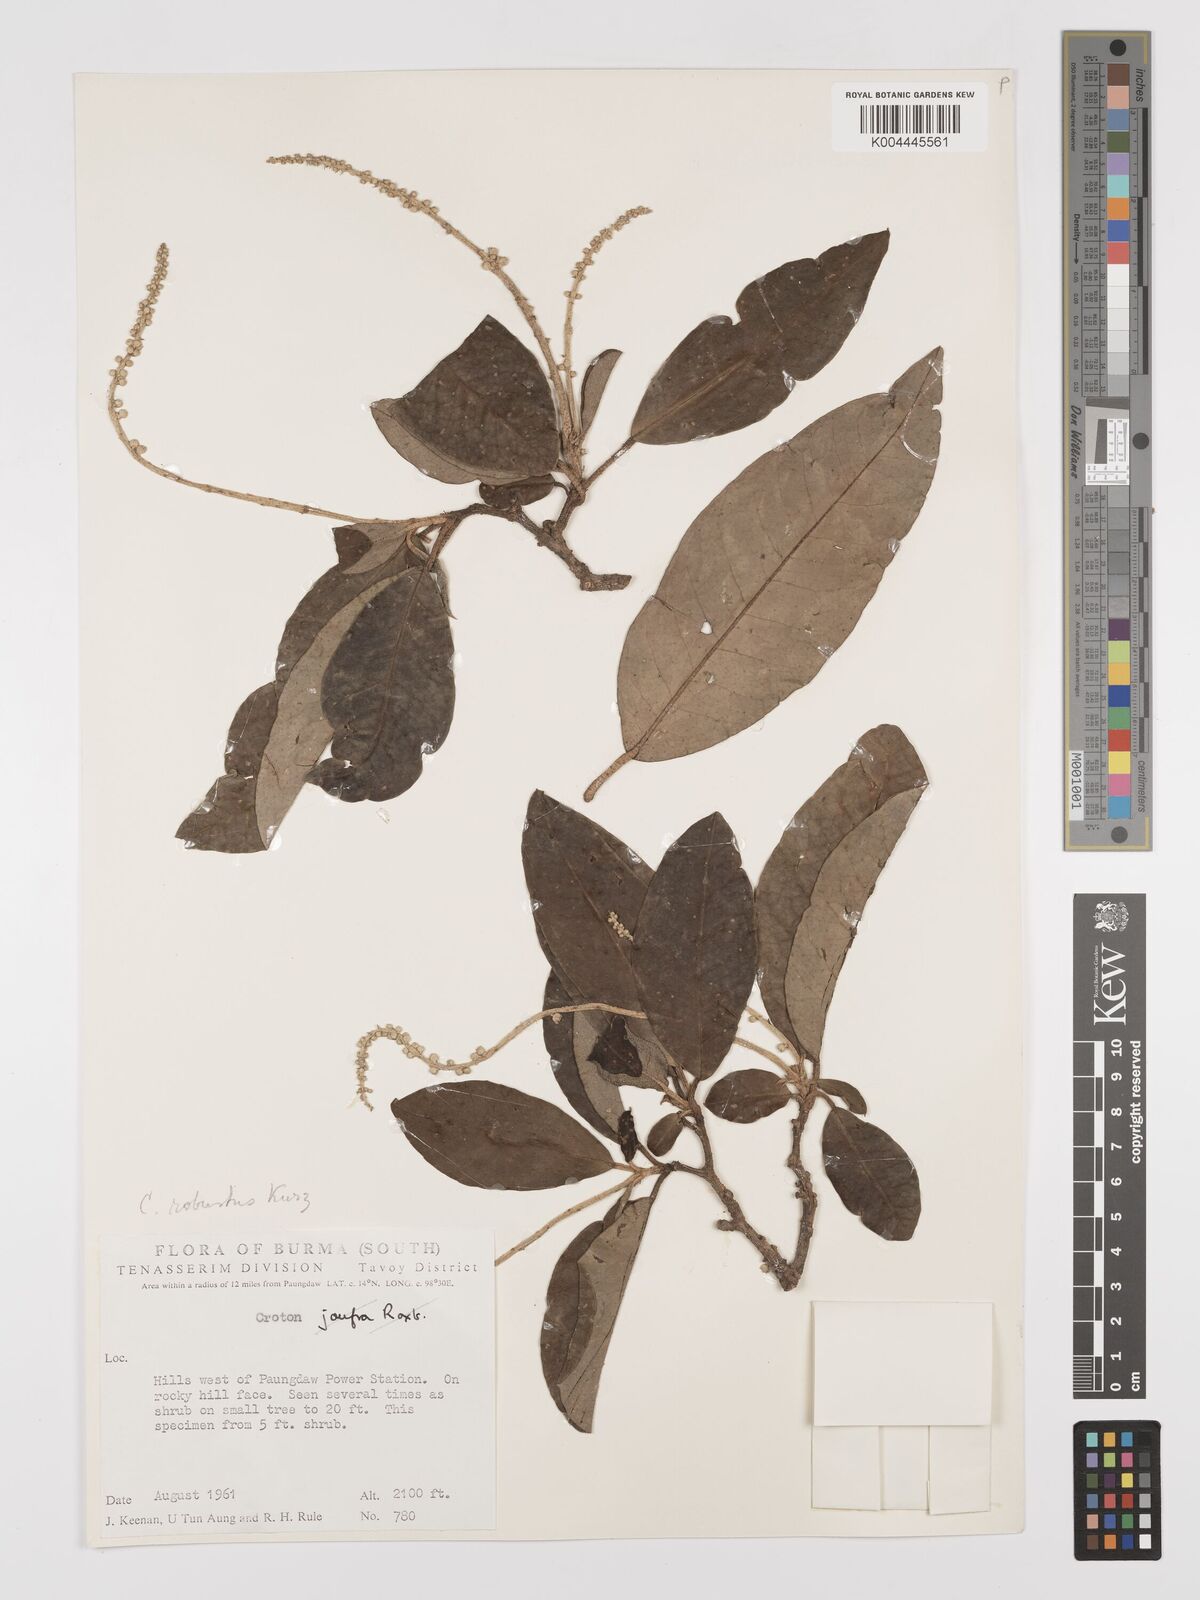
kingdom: Plantae
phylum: Tracheophyta
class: Magnoliopsida
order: Malpighiales
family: Euphorbiaceae
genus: Croton
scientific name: Croton robustus
